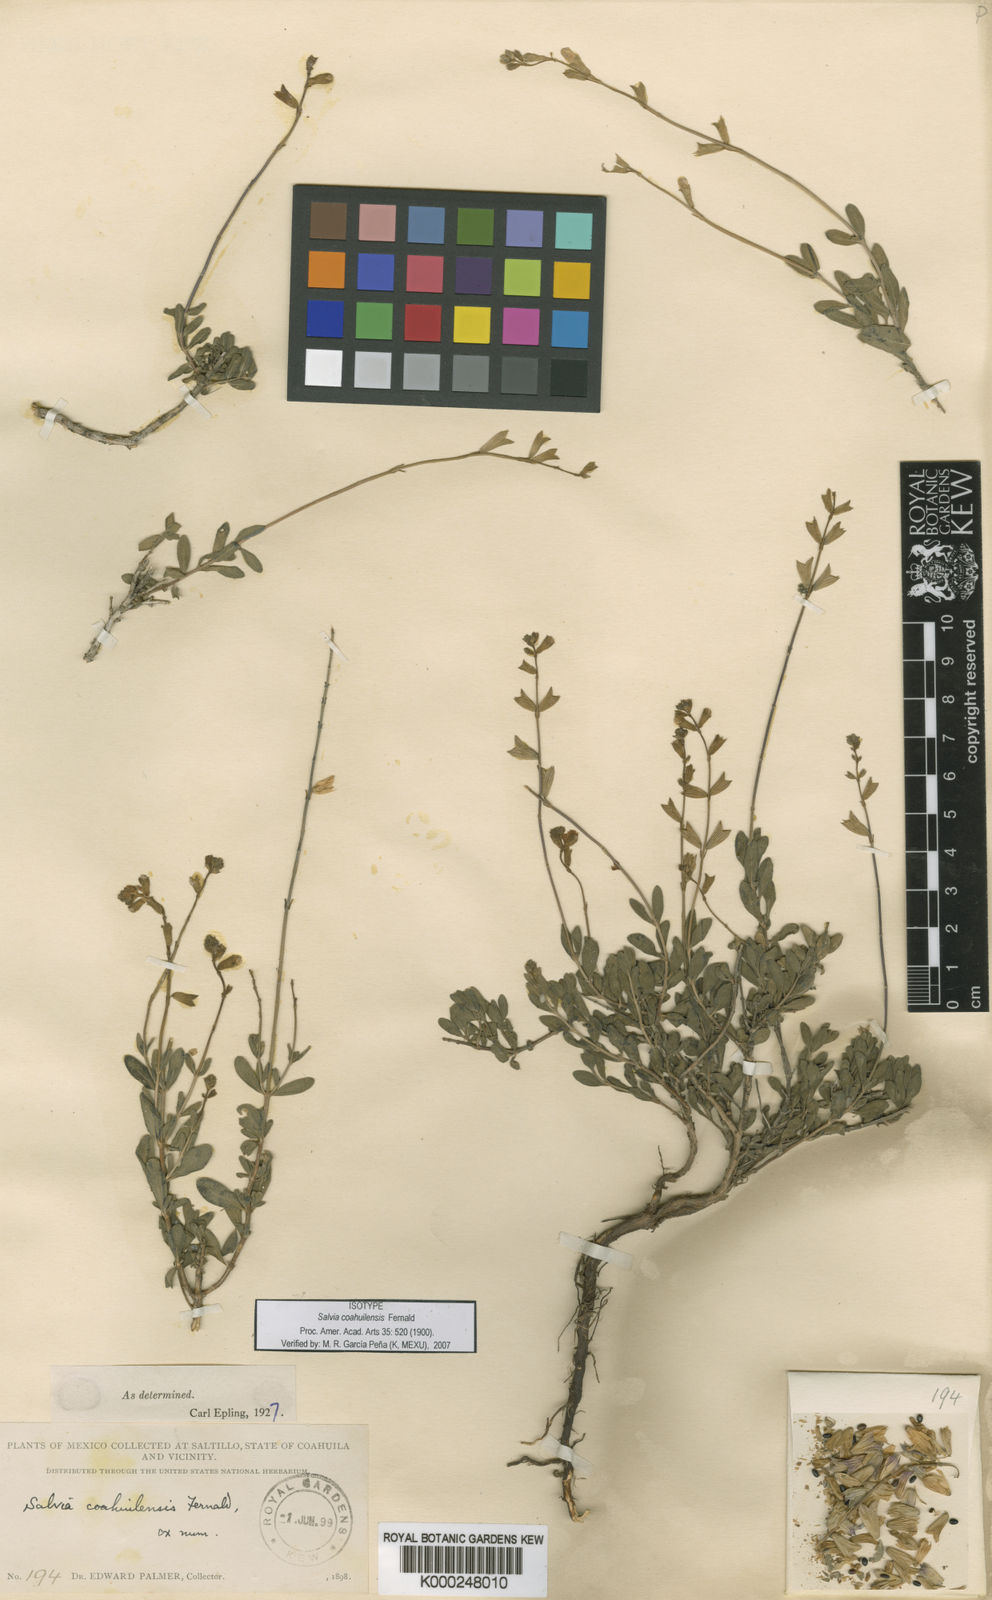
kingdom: Plantae
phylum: Tracheophyta
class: Magnoliopsida
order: Lamiales
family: Lamiaceae
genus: Salvia
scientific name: Salvia coahuilensis
